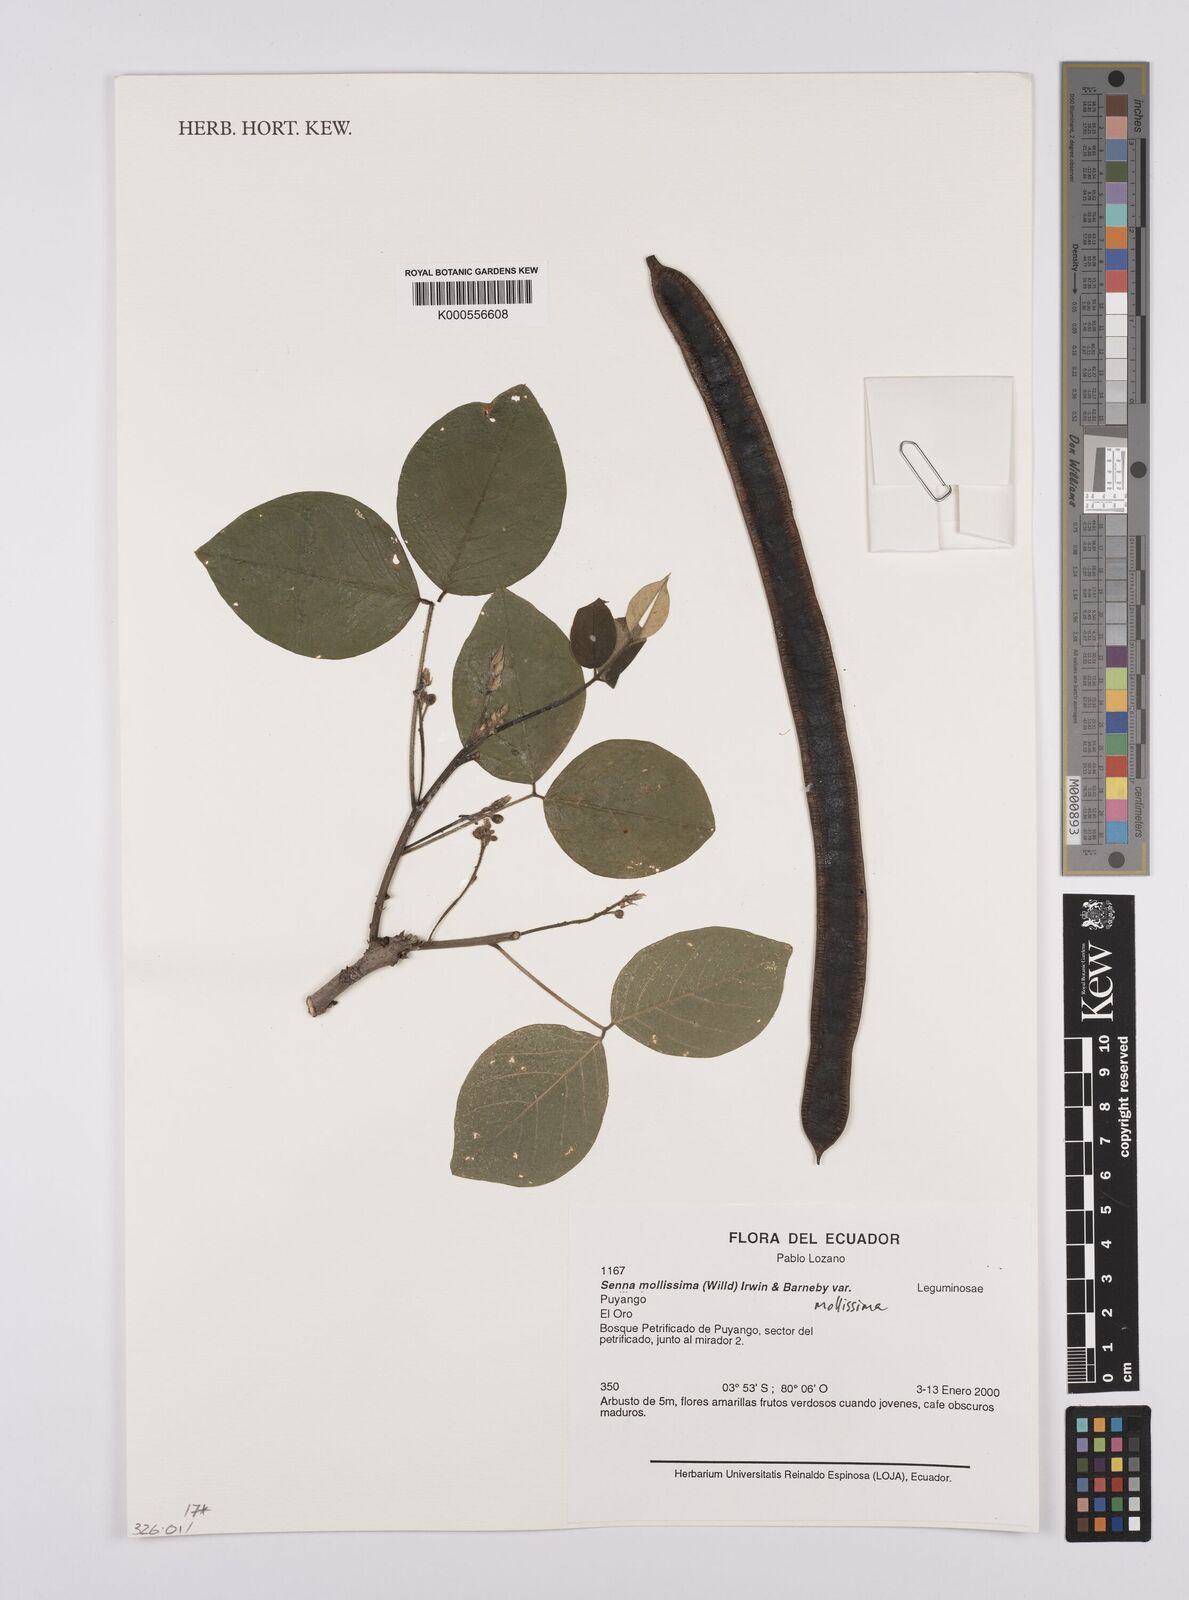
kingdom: Plantae
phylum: Tracheophyta
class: Magnoliopsida
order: Fabales
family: Fabaceae
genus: Senna
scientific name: Senna mollissima
